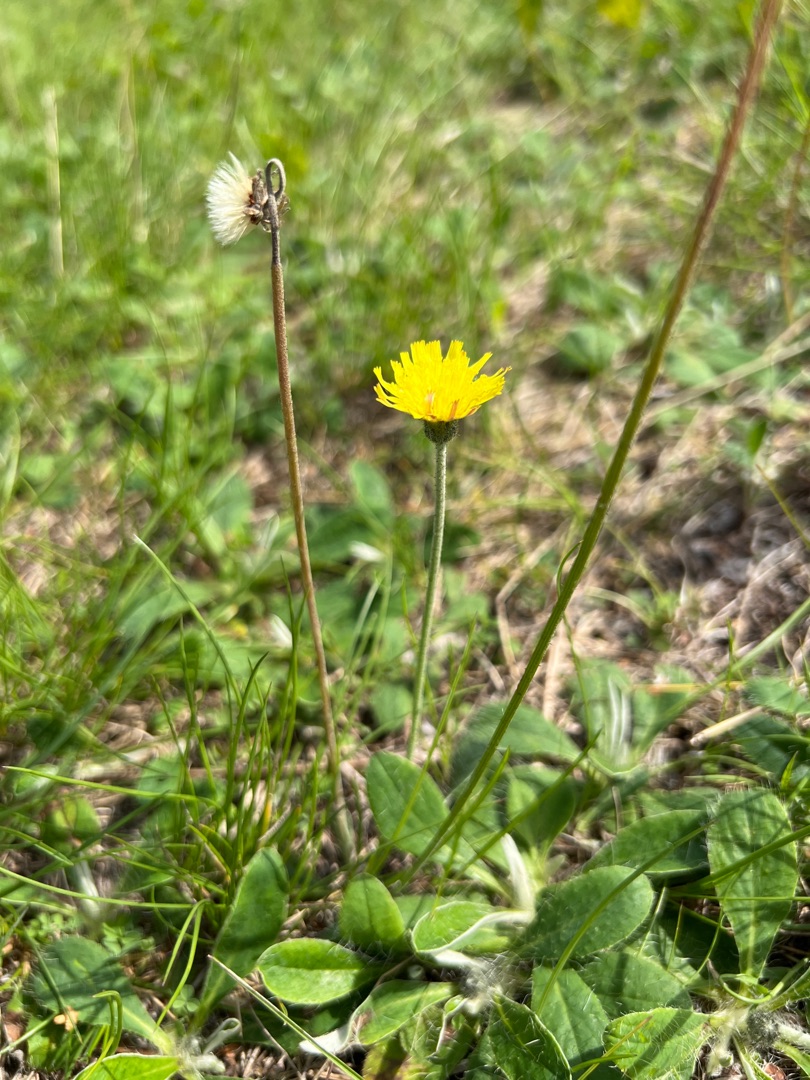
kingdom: Plantae
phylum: Tracheophyta
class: Magnoliopsida
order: Asterales
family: Asteraceae
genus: Pilosella
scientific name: Pilosella officinarum
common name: Håret høgeurt
